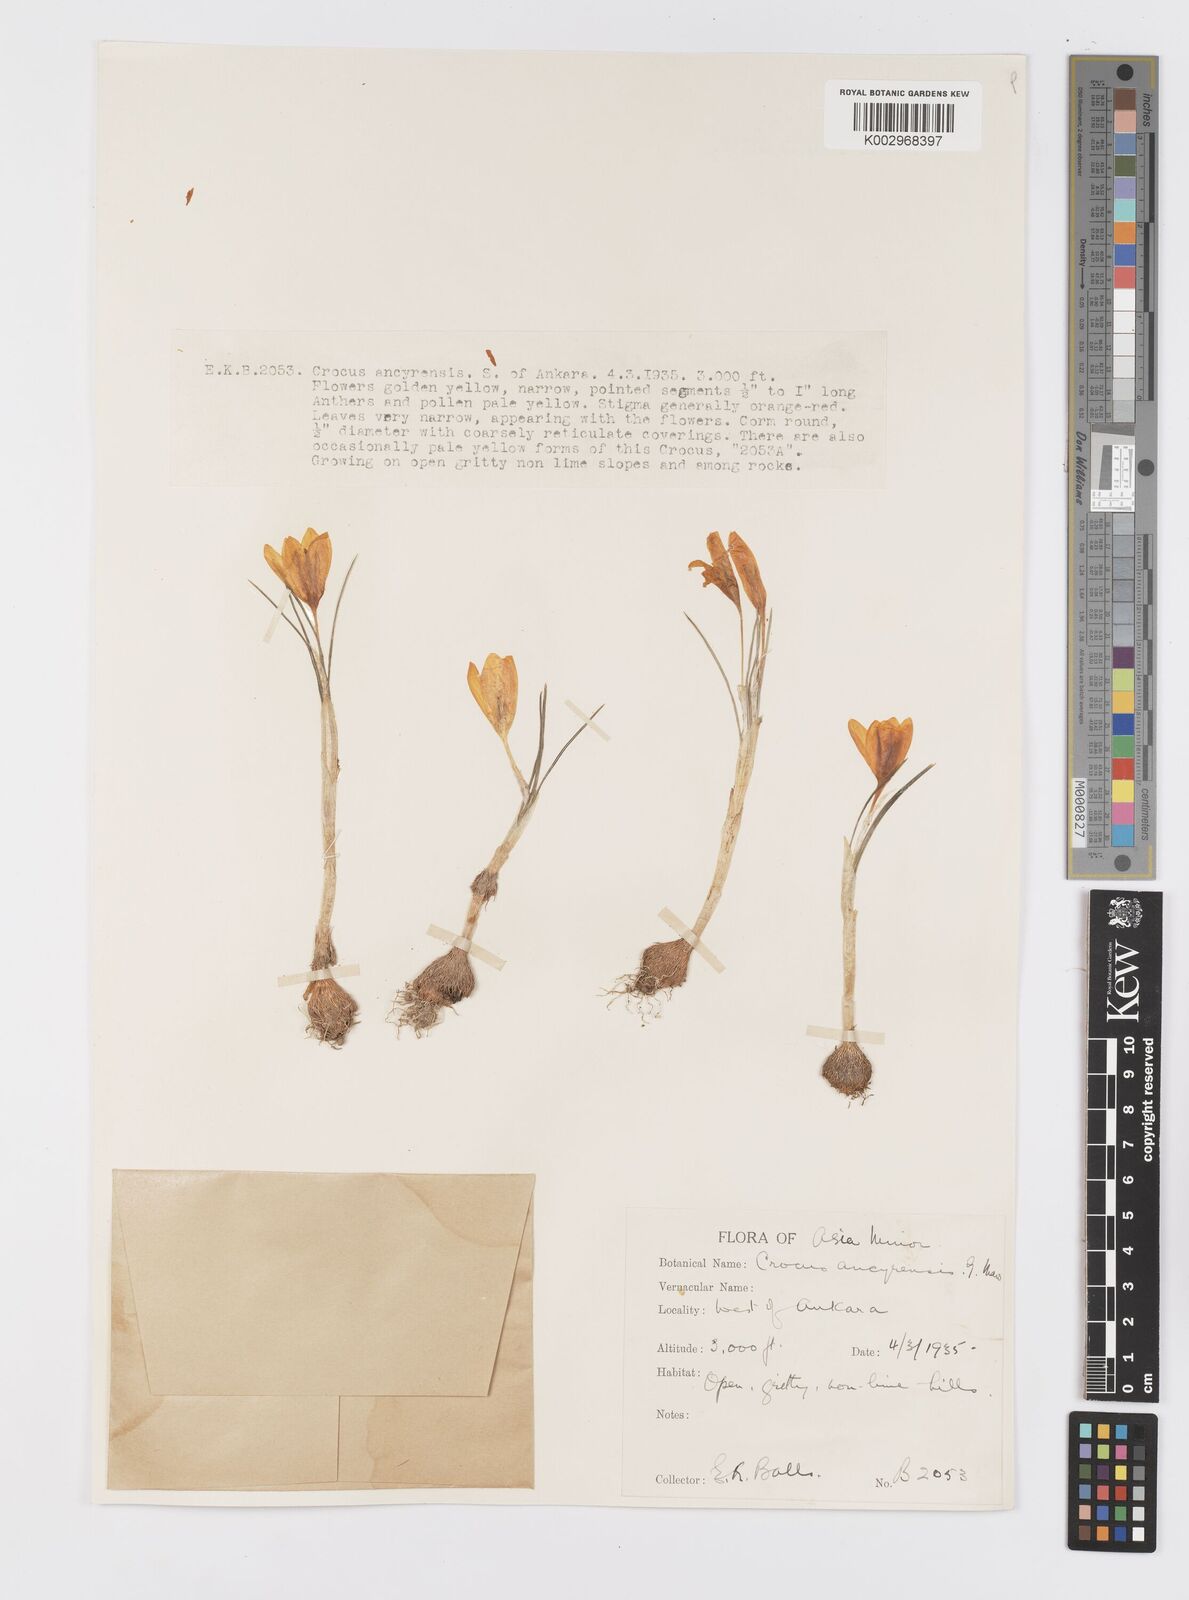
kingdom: Plantae
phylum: Tracheophyta
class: Liliopsida
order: Asparagales
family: Iridaceae
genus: Crocus
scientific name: Crocus ancyrensis
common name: Ankara crocus
